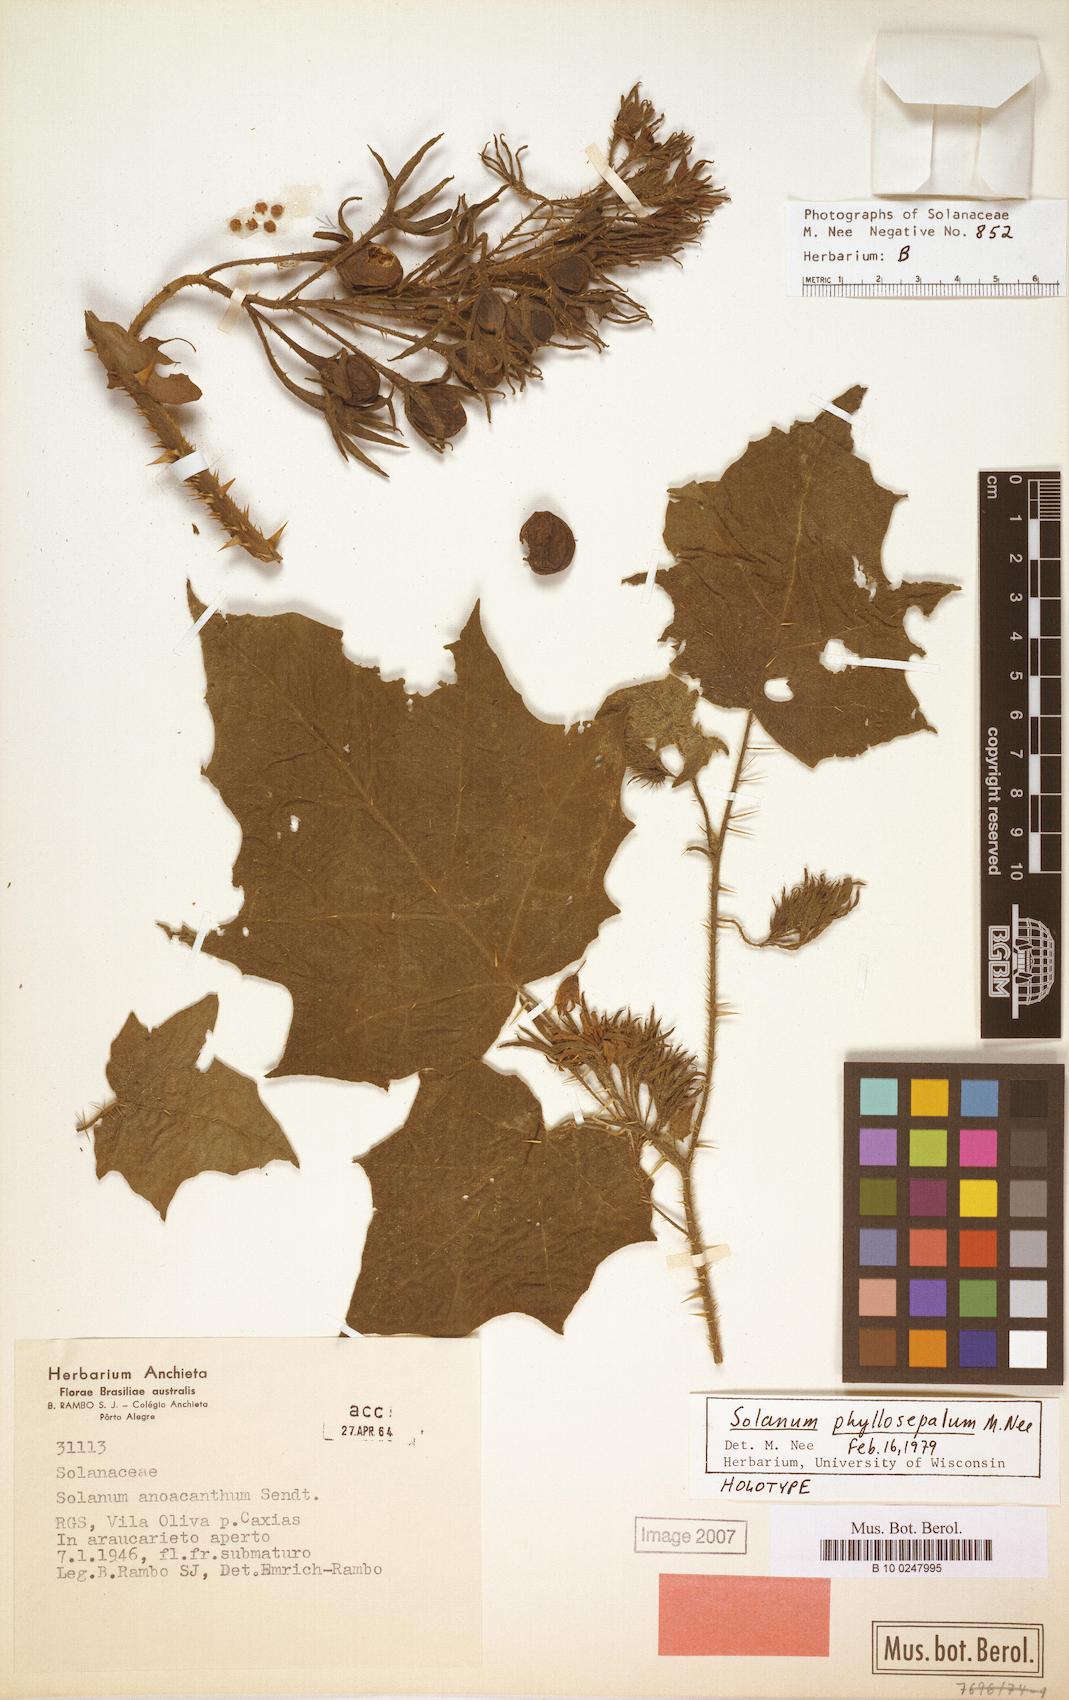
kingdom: Plantae
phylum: Tracheophyta
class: Magnoliopsida
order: Solanales
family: Solanaceae
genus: Solanum
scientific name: Solanum
